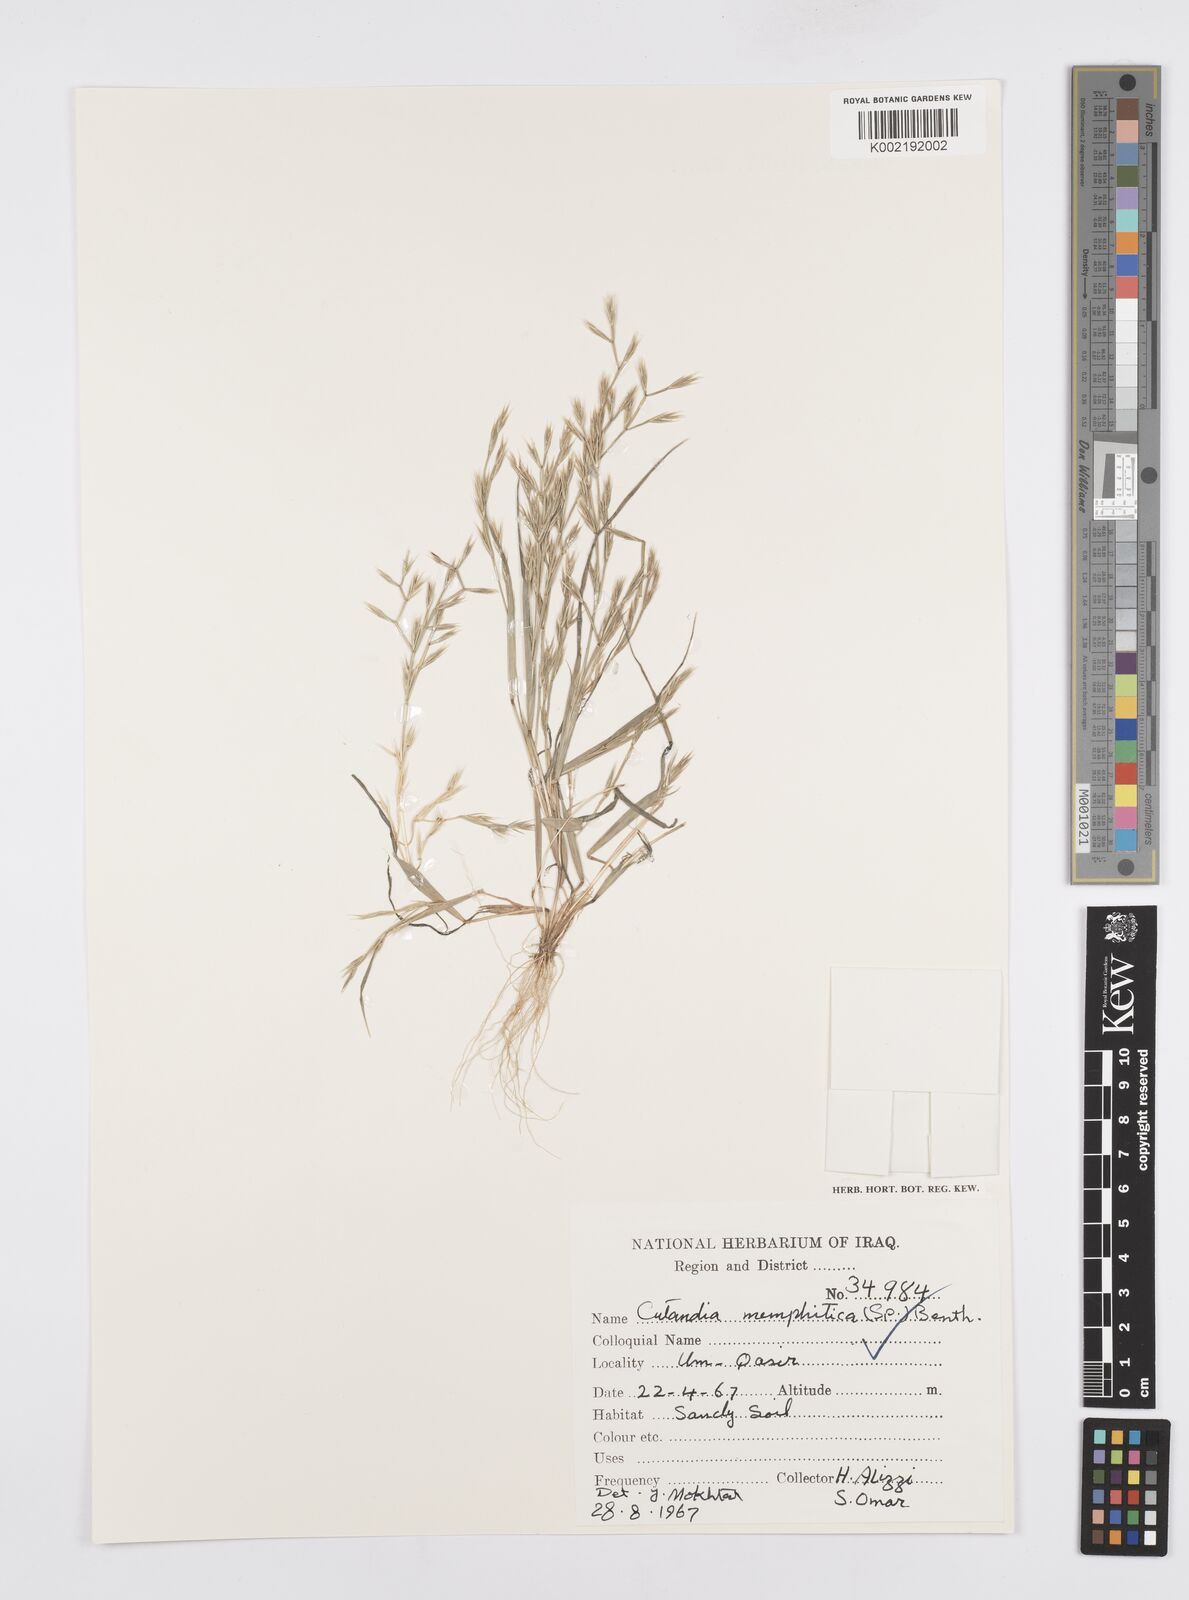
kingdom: Plantae
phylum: Tracheophyta
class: Liliopsida
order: Poales
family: Poaceae
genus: Cutandia
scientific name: Cutandia memphitica
